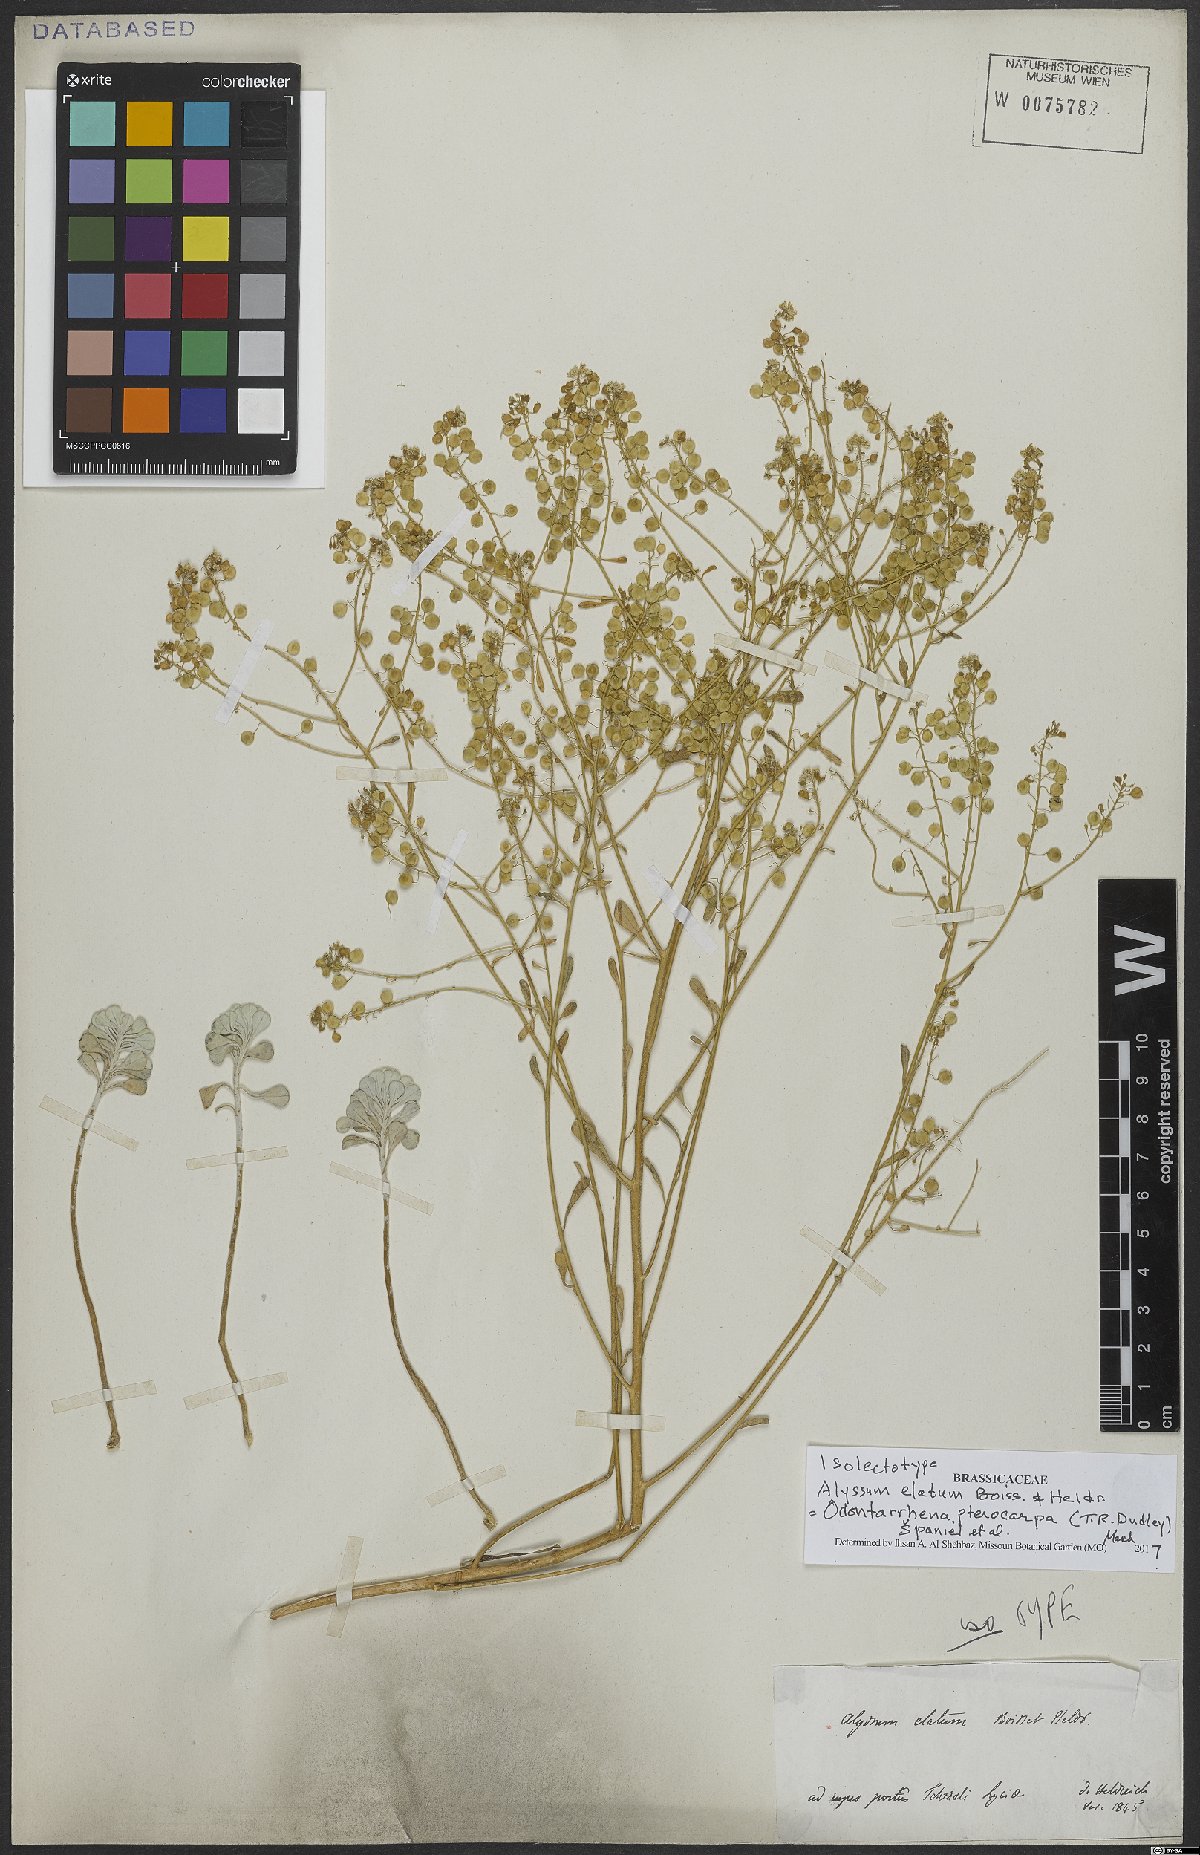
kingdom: Plantae
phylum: Tracheophyta
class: Magnoliopsida
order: Brassicales
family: Brassicaceae
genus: Odontarrhena
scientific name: Odontarrhena pterocarpa
